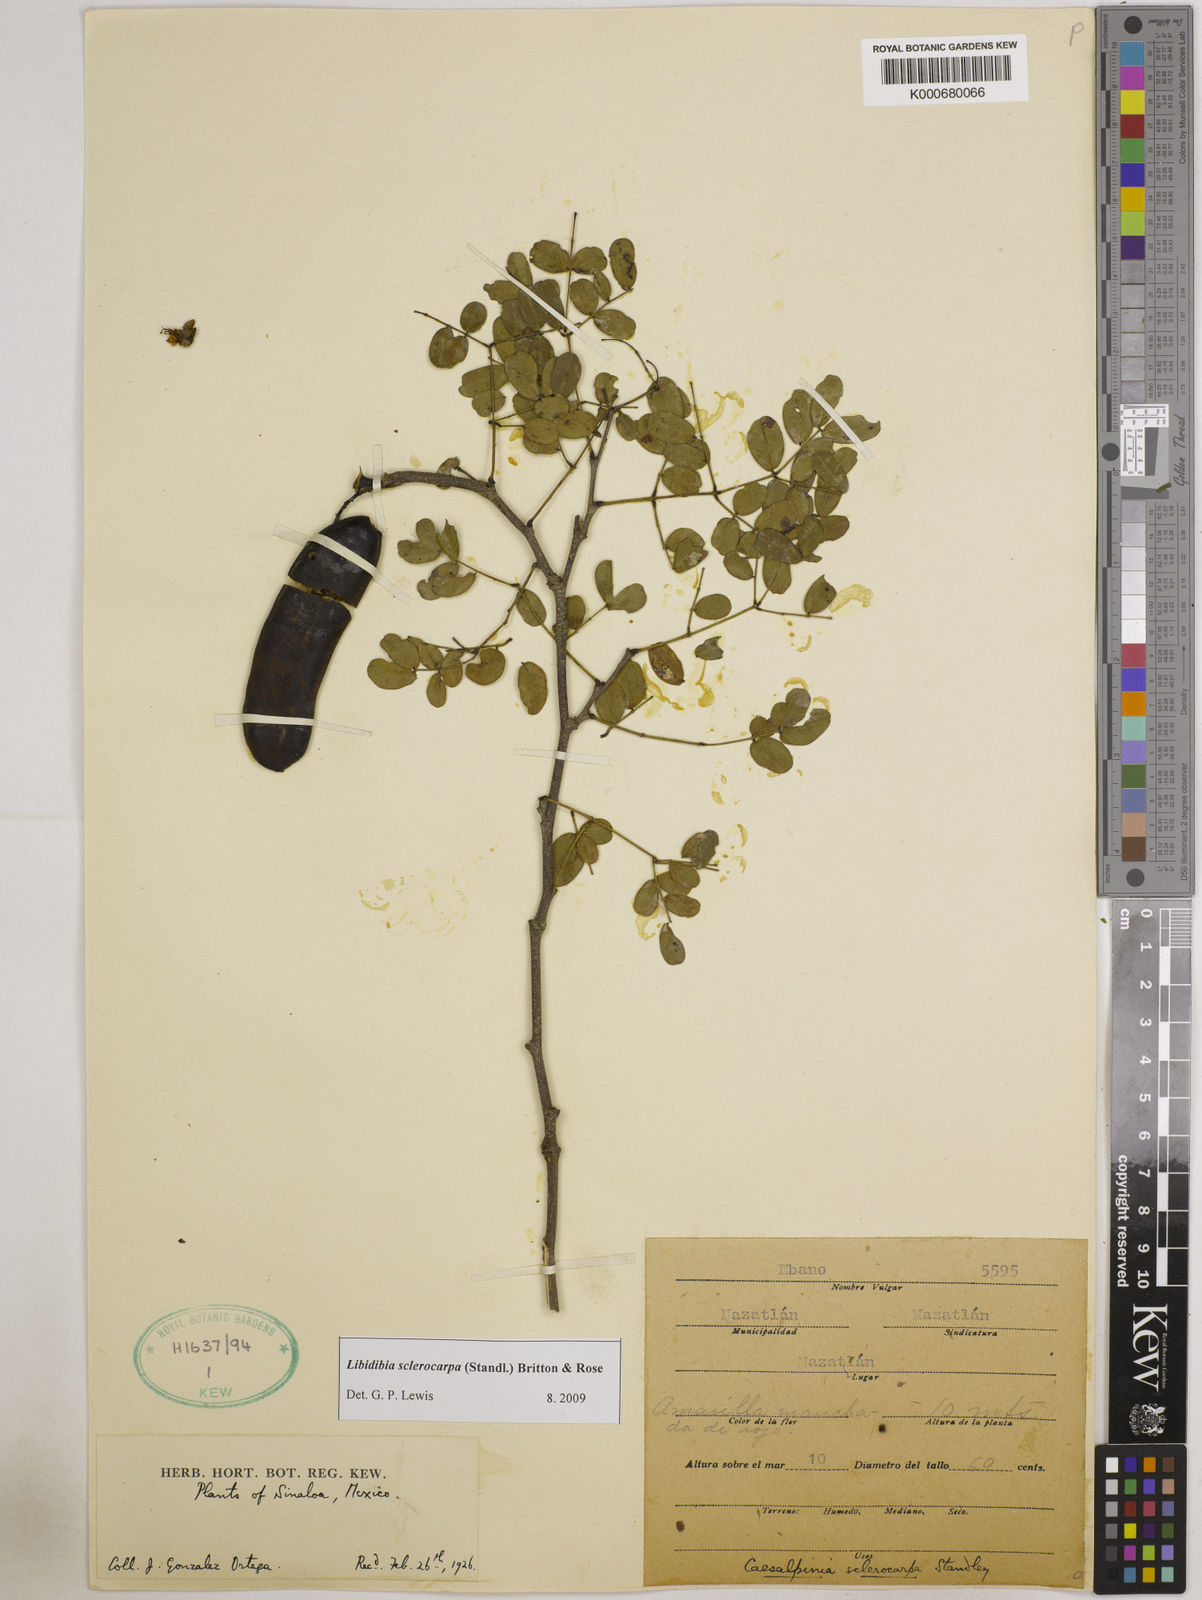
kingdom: Plantae
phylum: Tracheophyta
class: Magnoliopsida
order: Fabales
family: Fabaceae
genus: Libidibia
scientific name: Libidibia sclerocarpa
